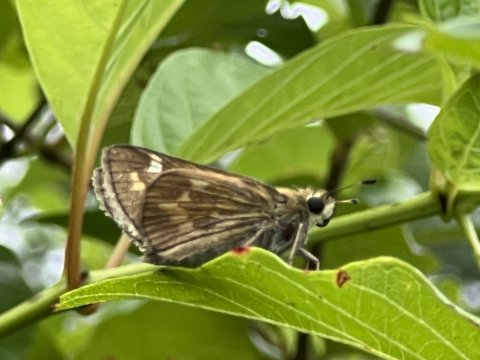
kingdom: Animalia
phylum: Arthropoda
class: Insecta
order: Lepidoptera
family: Hesperiidae
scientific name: Hesperiidae
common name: Skippers
